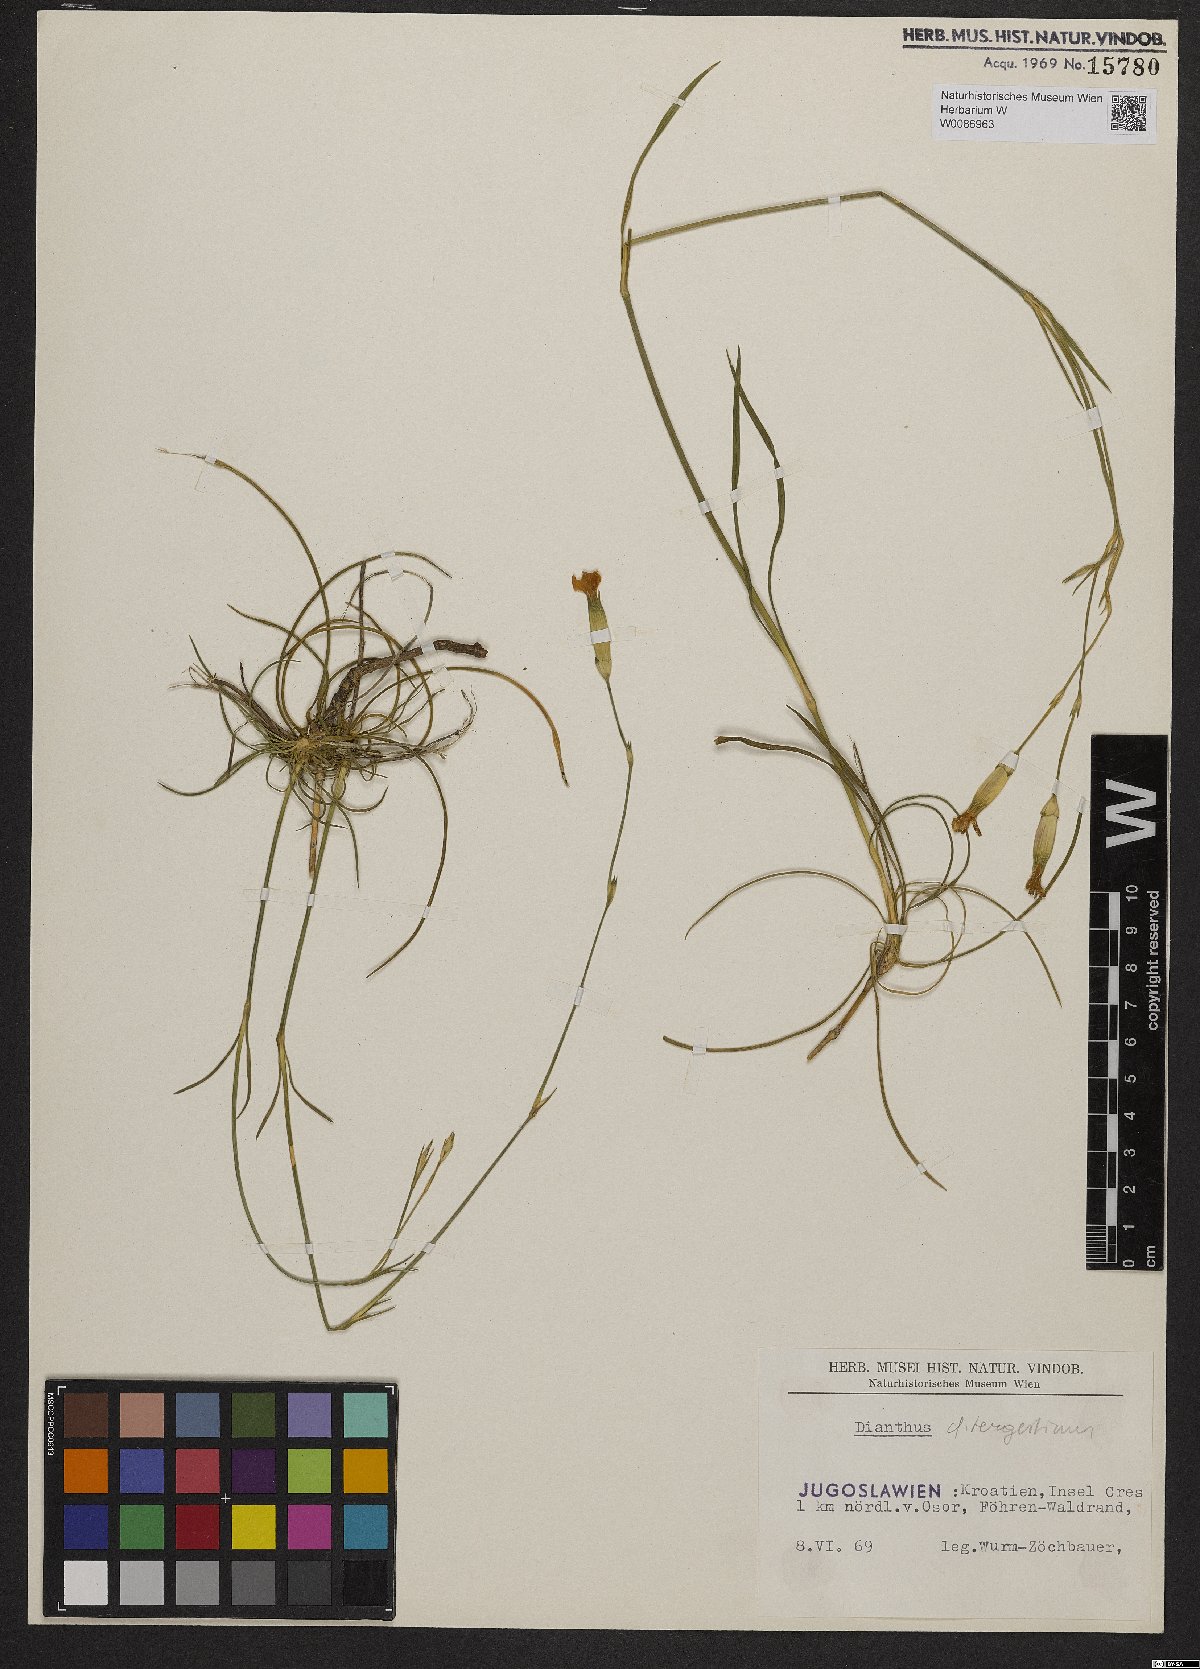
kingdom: Plantae
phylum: Tracheophyta
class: Magnoliopsida
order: Caryophyllales
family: Caryophyllaceae
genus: Dianthus
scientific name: Dianthus sylvestris
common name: Wood pink
